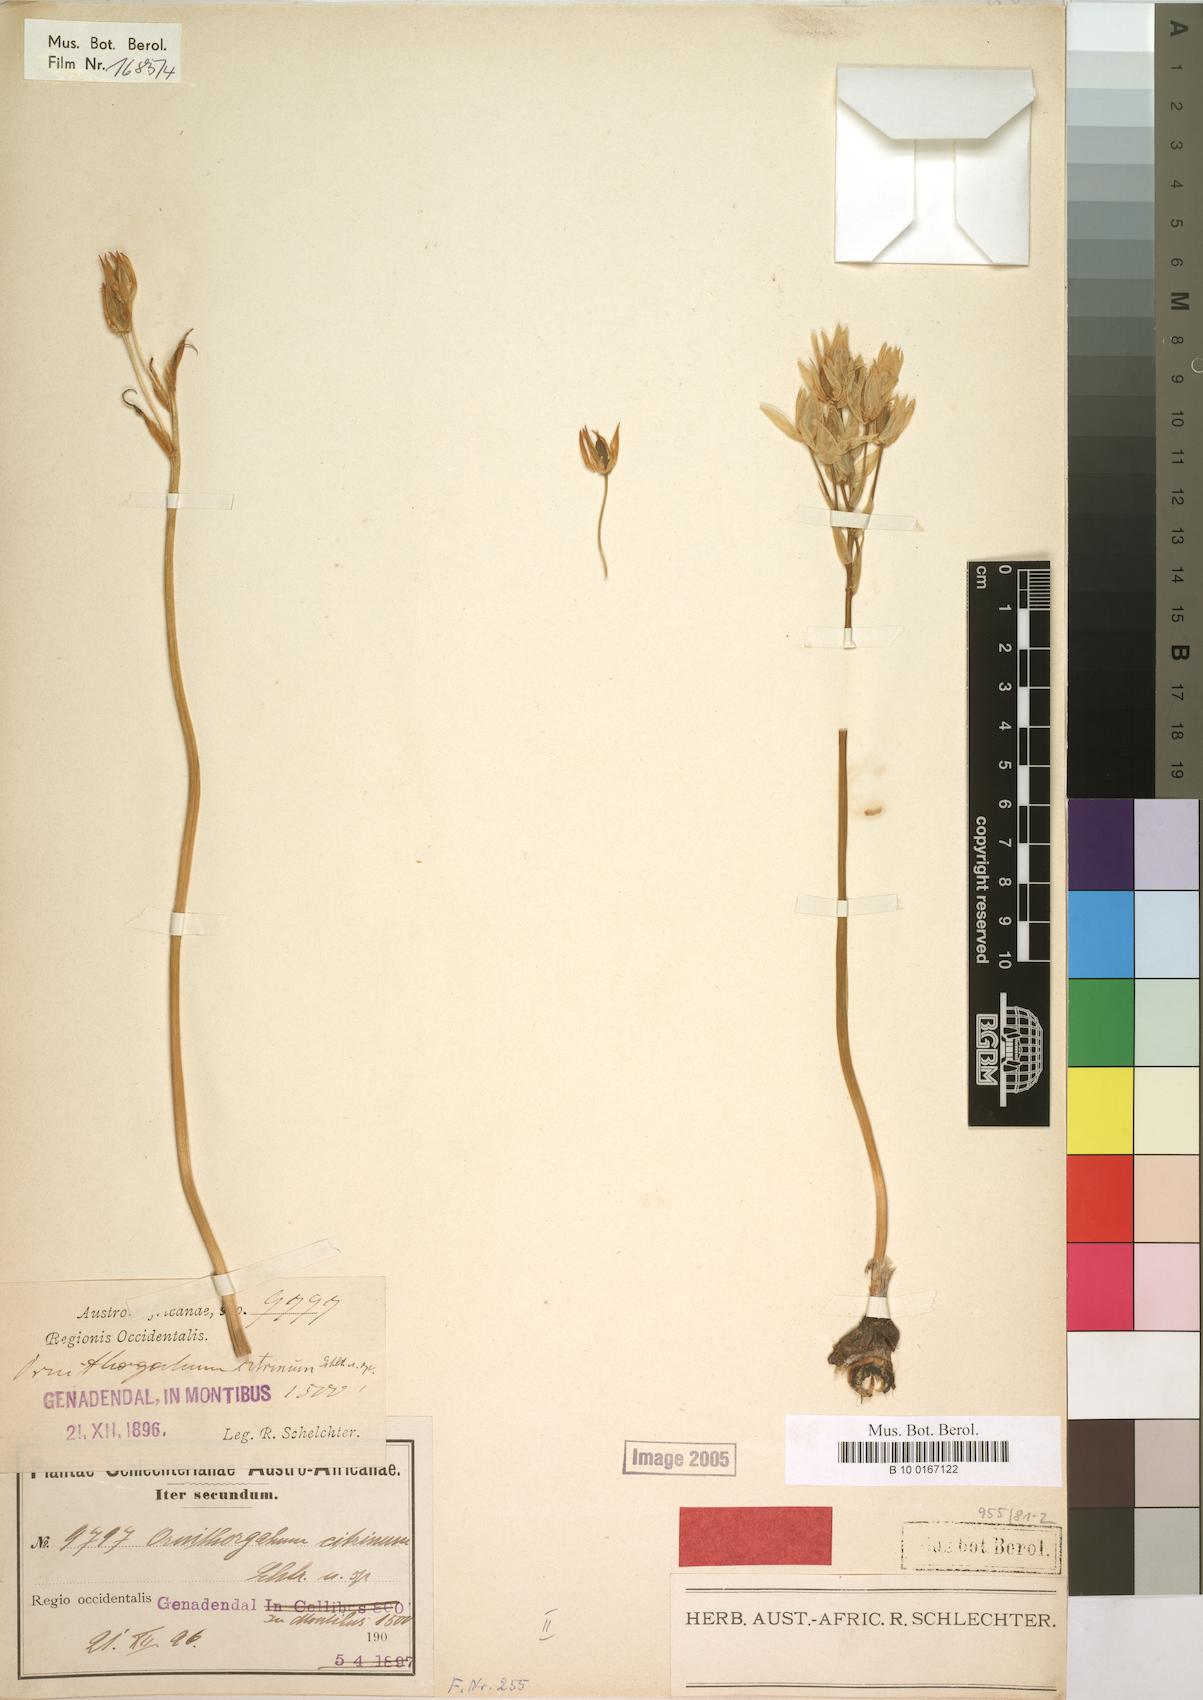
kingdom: Plantae
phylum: Tracheophyta
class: Liliopsida
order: Asparagales
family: Asparagaceae
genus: Ornithogalum
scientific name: Ornithogalum dubium
